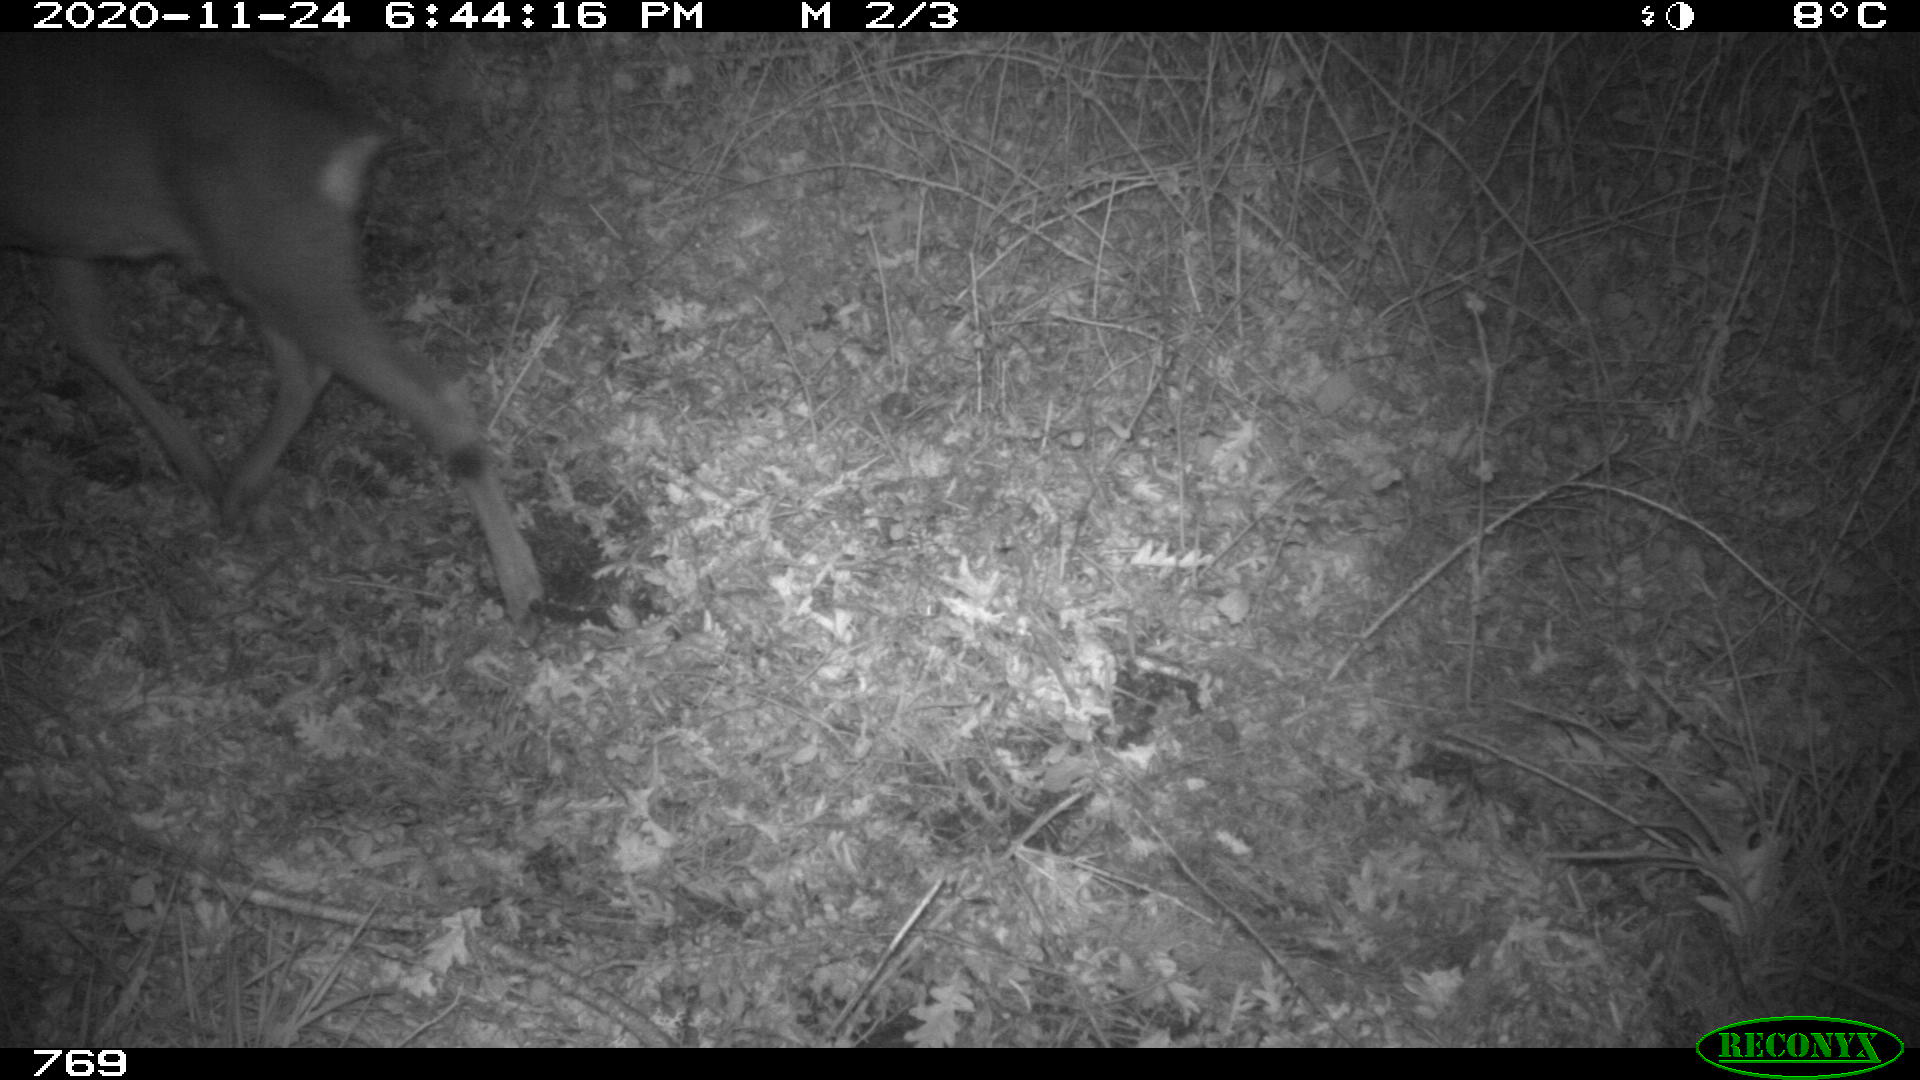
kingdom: Animalia
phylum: Chordata
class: Mammalia
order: Artiodactyla
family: Cervidae
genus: Capreolus
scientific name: Capreolus capreolus
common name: Western roe deer
